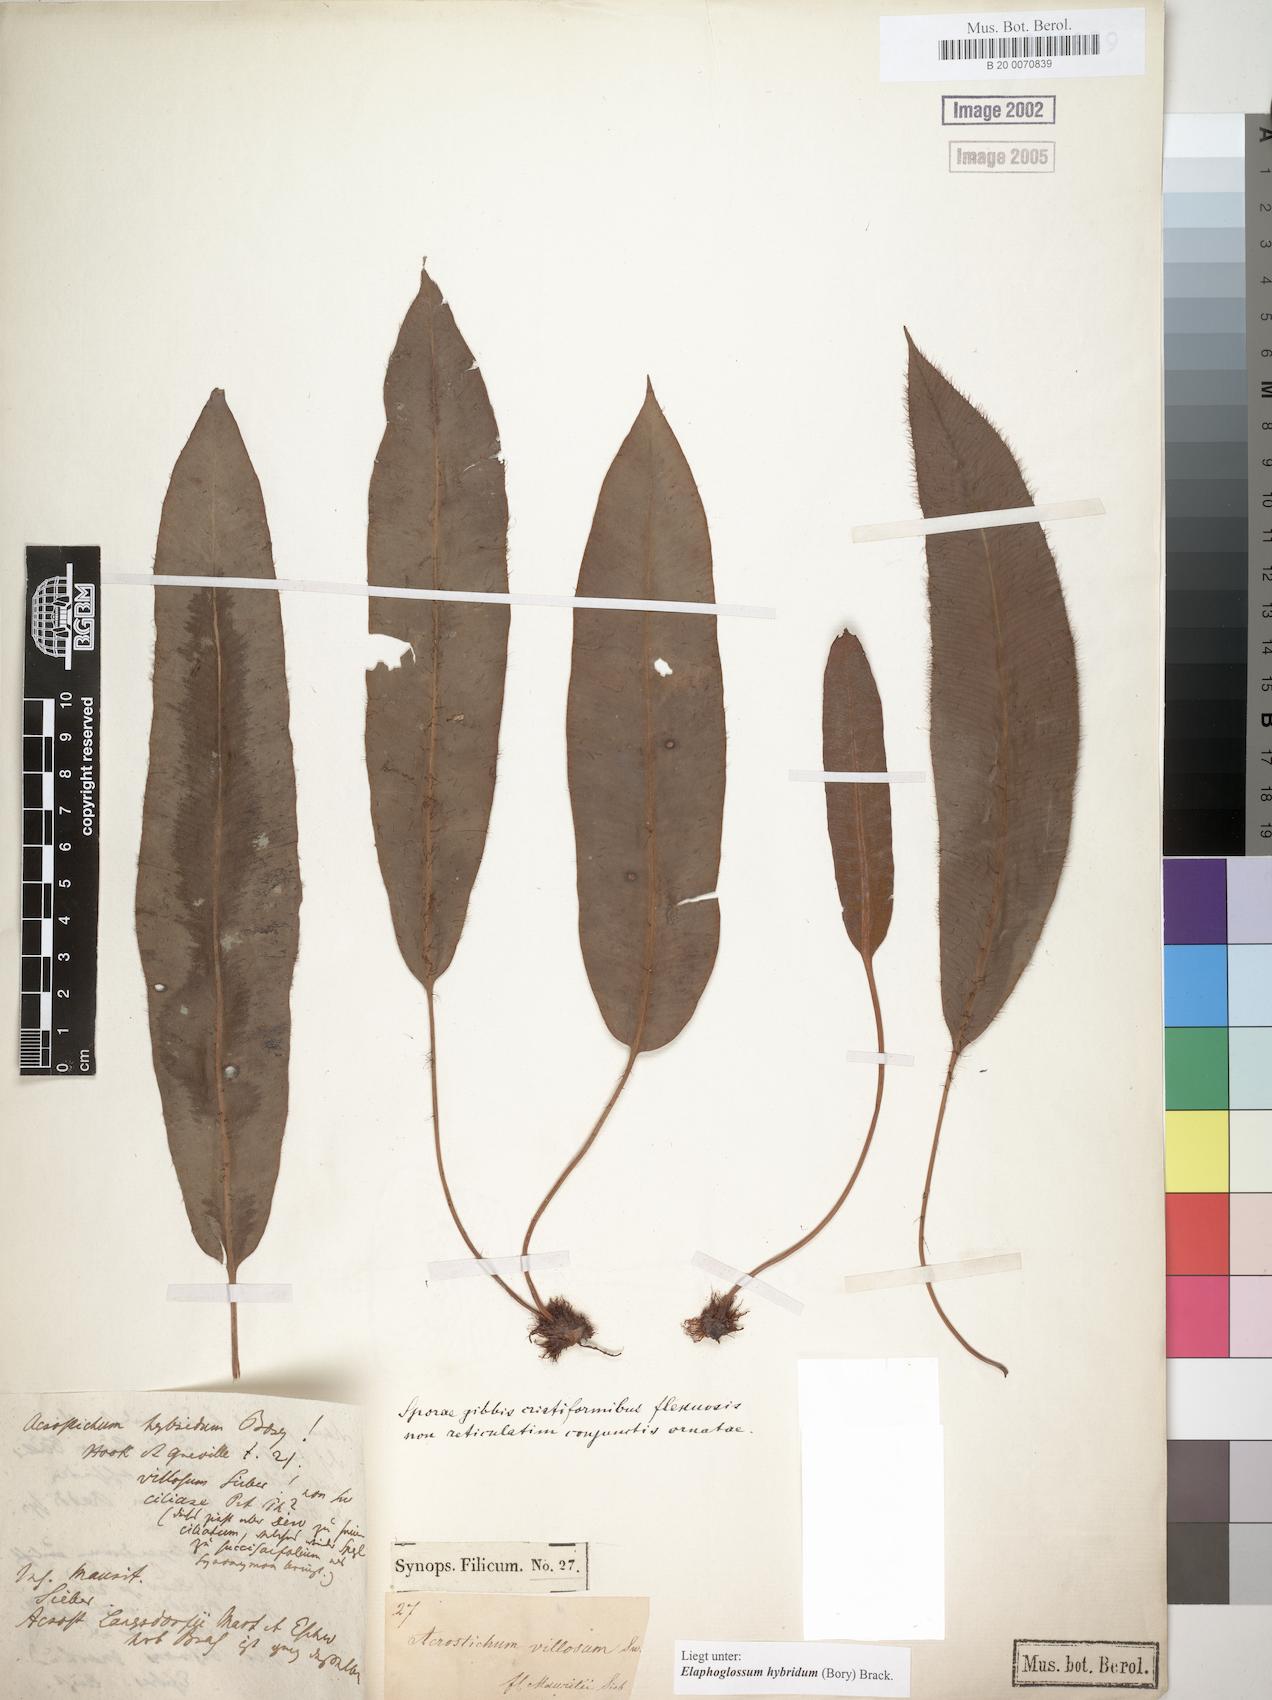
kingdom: Plantae
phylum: Tracheophyta
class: Polypodiopsida
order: Polypodiales
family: Dryopteridaceae
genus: Elaphoglossum
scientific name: Elaphoglossum hybridum
